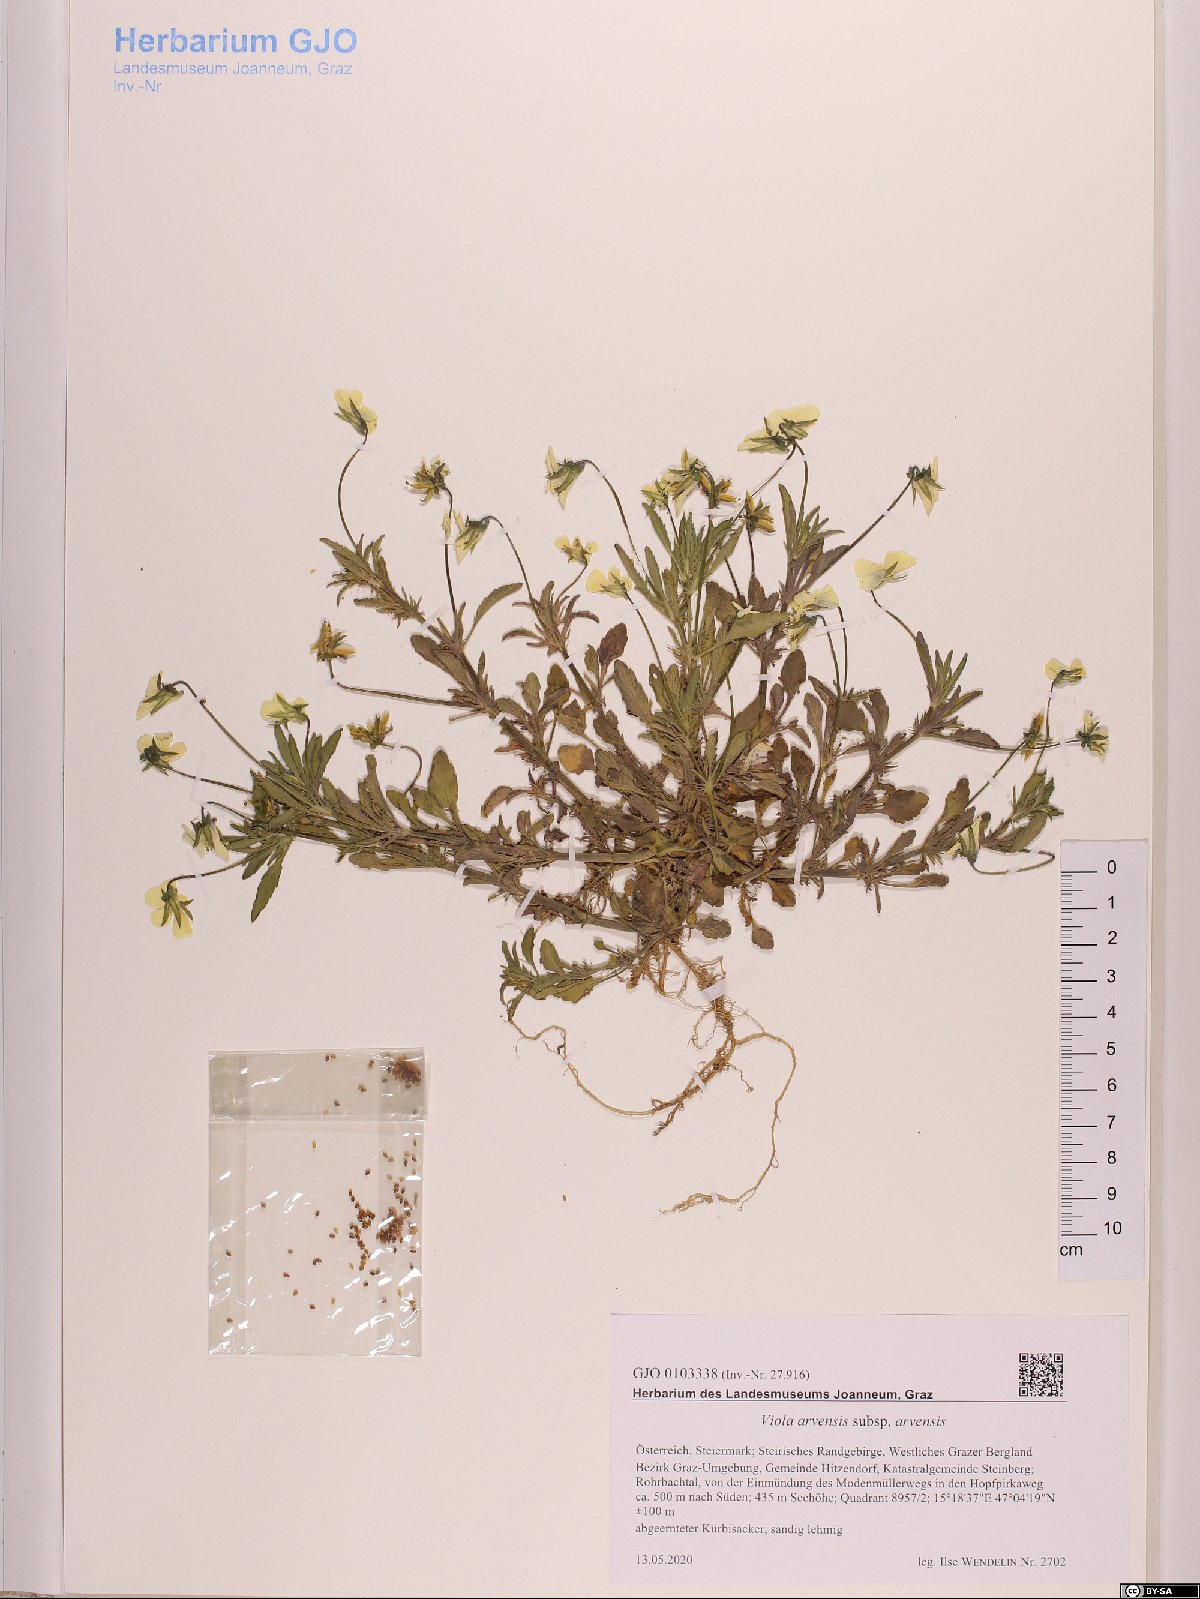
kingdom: Plantae
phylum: Tracheophyta
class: Magnoliopsida
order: Malpighiales
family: Violaceae
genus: Viola
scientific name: Viola arvensis
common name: Field pansy
